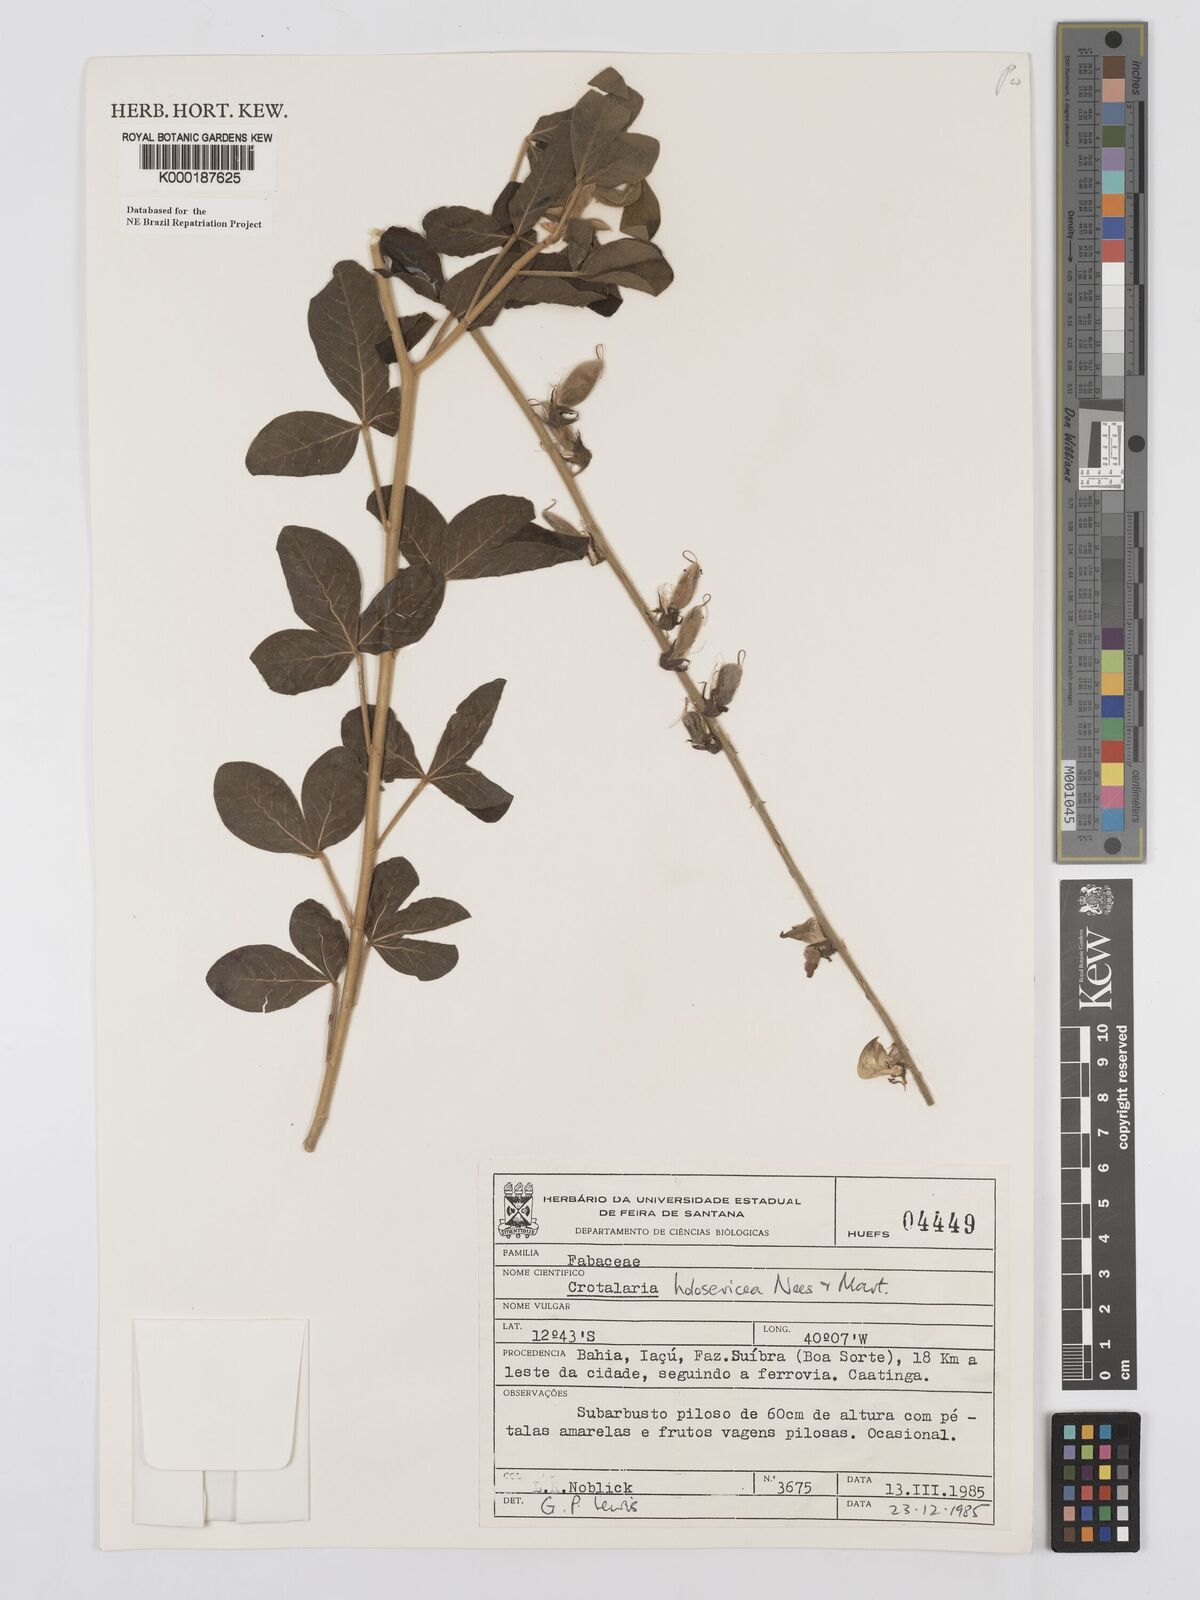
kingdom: Plantae
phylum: Tracheophyta
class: Magnoliopsida
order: Fabales
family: Fabaceae
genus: Crotalaria
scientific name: Crotalaria holosericea
